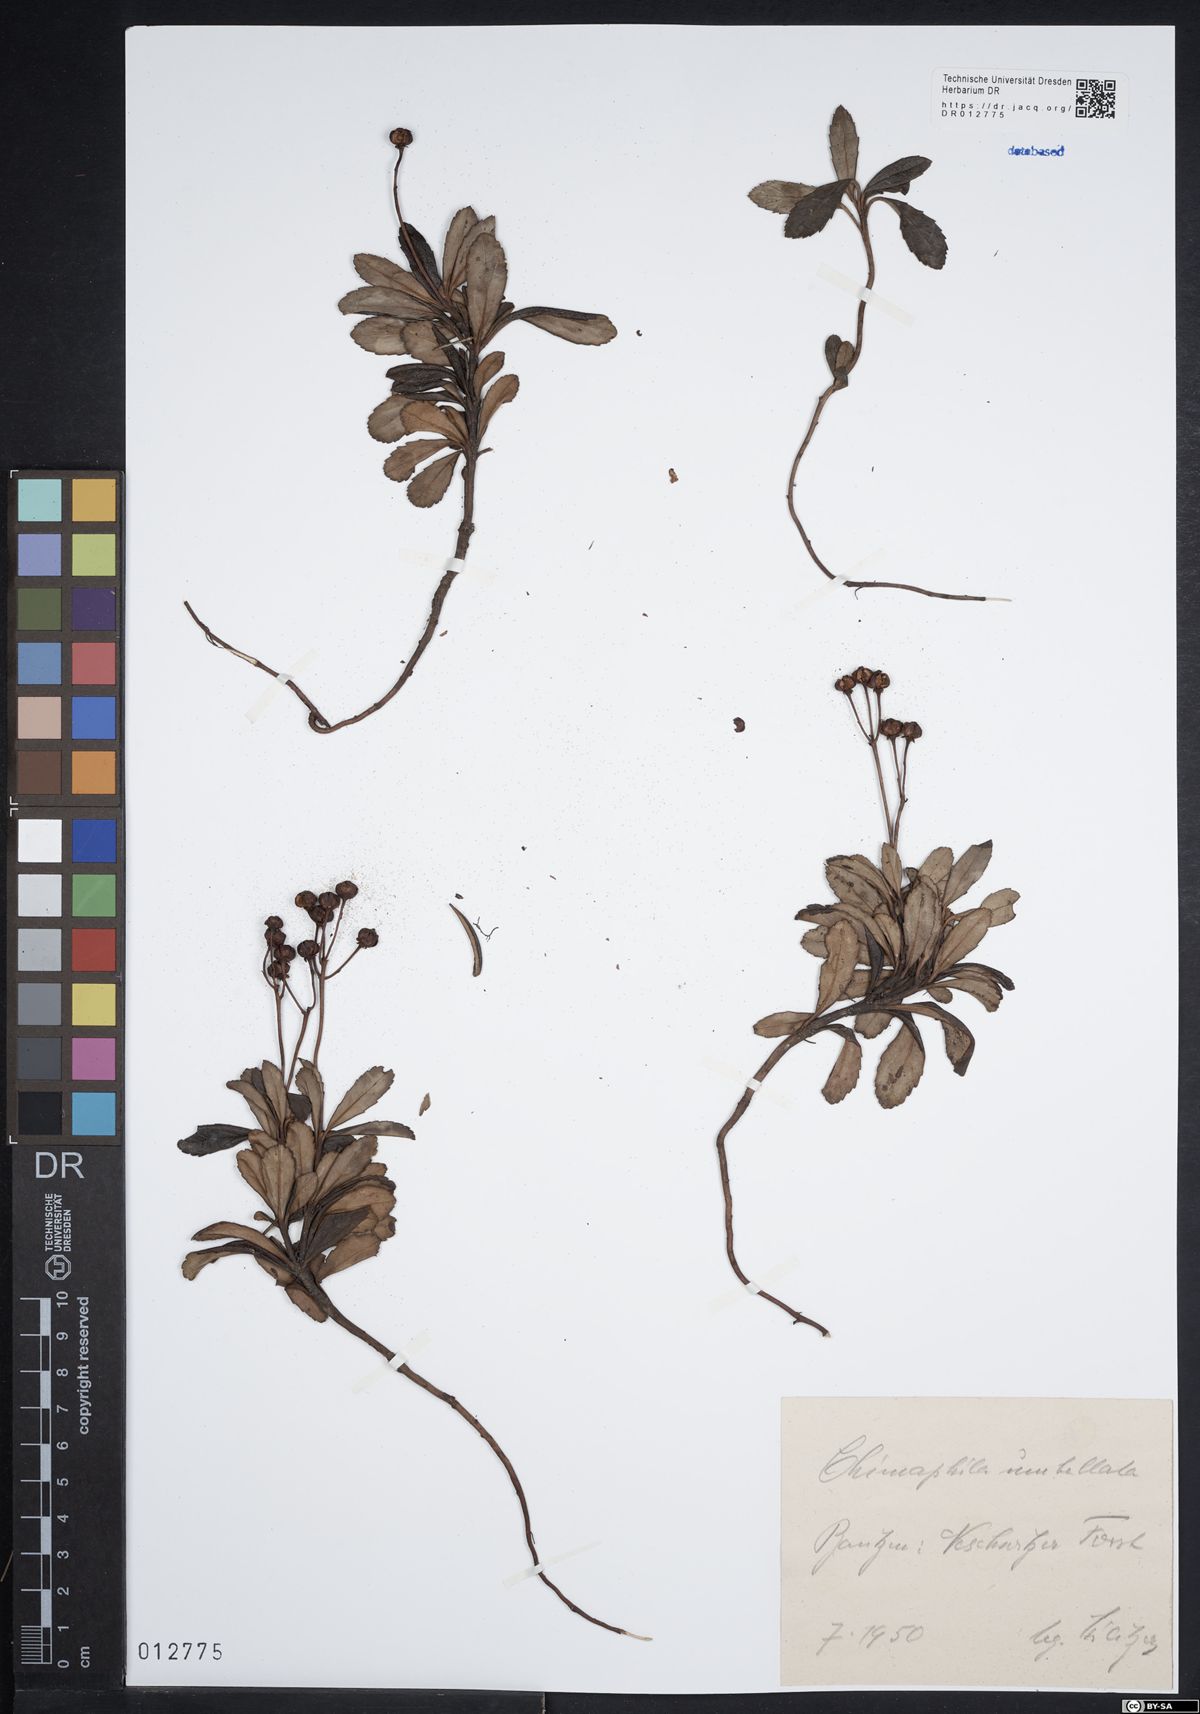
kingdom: Plantae
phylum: Tracheophyta
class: Magnoliopsida
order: Ericales
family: Ericaceae
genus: Chimaphila
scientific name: Chimaphila umbellata
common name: Pipsissewa
